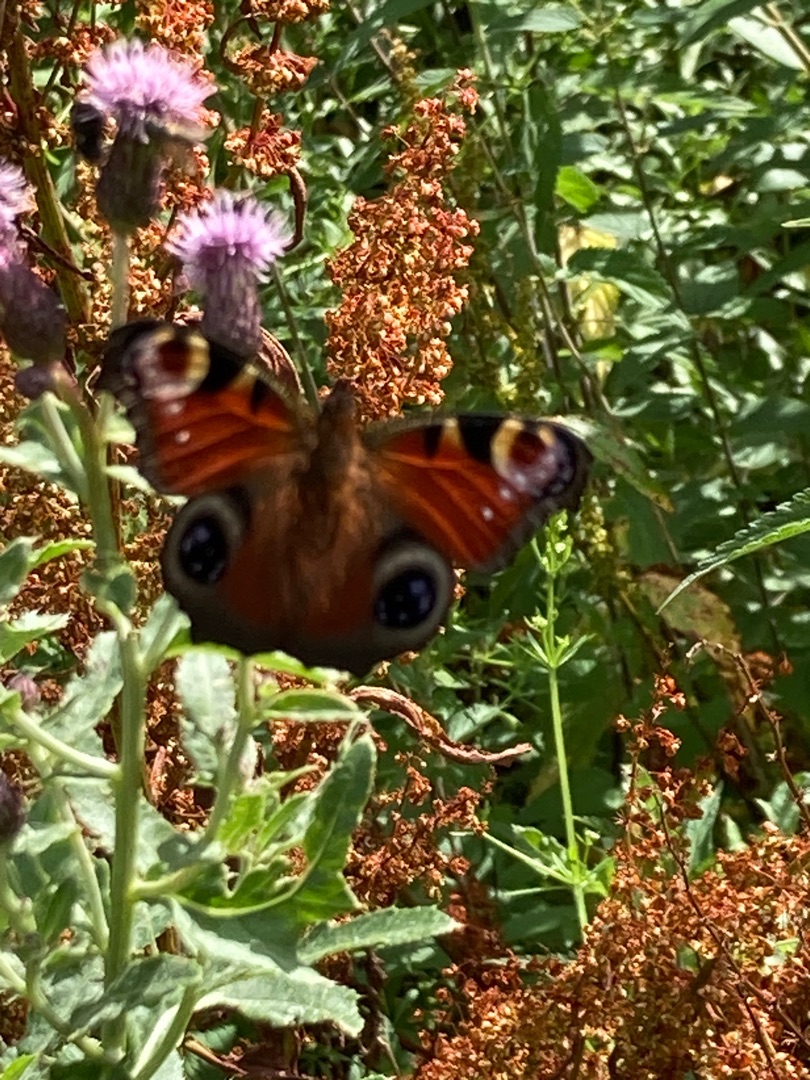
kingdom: Animalia
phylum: Arthropoda
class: Insecta
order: Lepidoptera
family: Nymphalidae
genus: Aglais
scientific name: Aglais io
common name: Dagpåfugleøje
